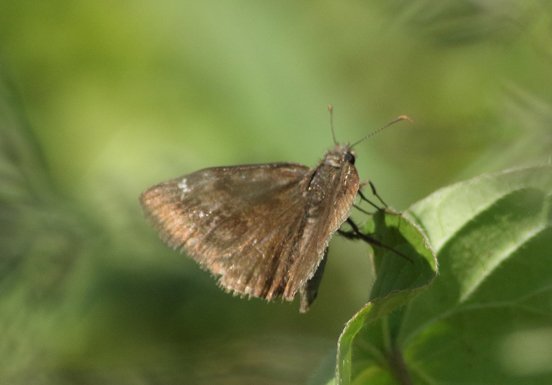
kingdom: Animalia
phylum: Arthropoda
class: Insecta
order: Lepidoptera
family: Hesperiidae
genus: Gesta
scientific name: Gesta
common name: Wild Indigo Duskywing
